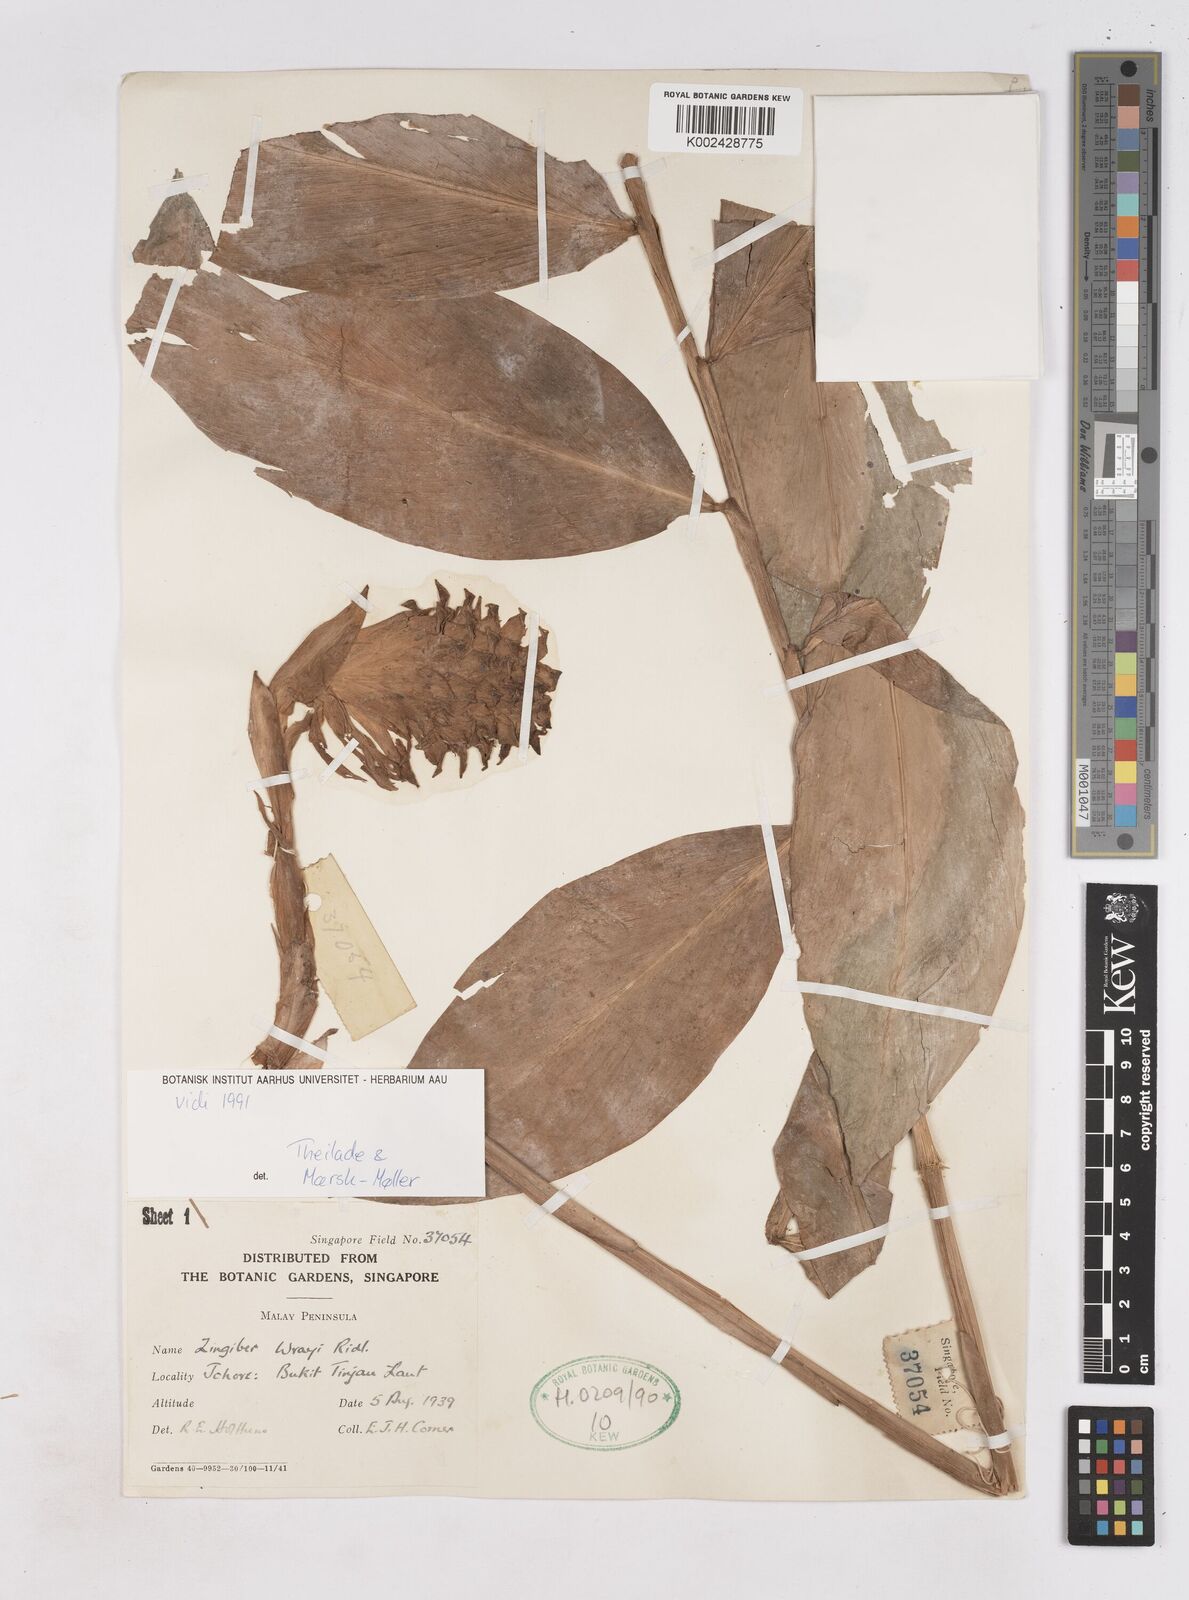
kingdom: Plantae
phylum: Tracheophyta
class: Liliopsida
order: Zingiberales
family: Zingiberaceae
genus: Zingiber
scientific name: Zingiber wrayi
